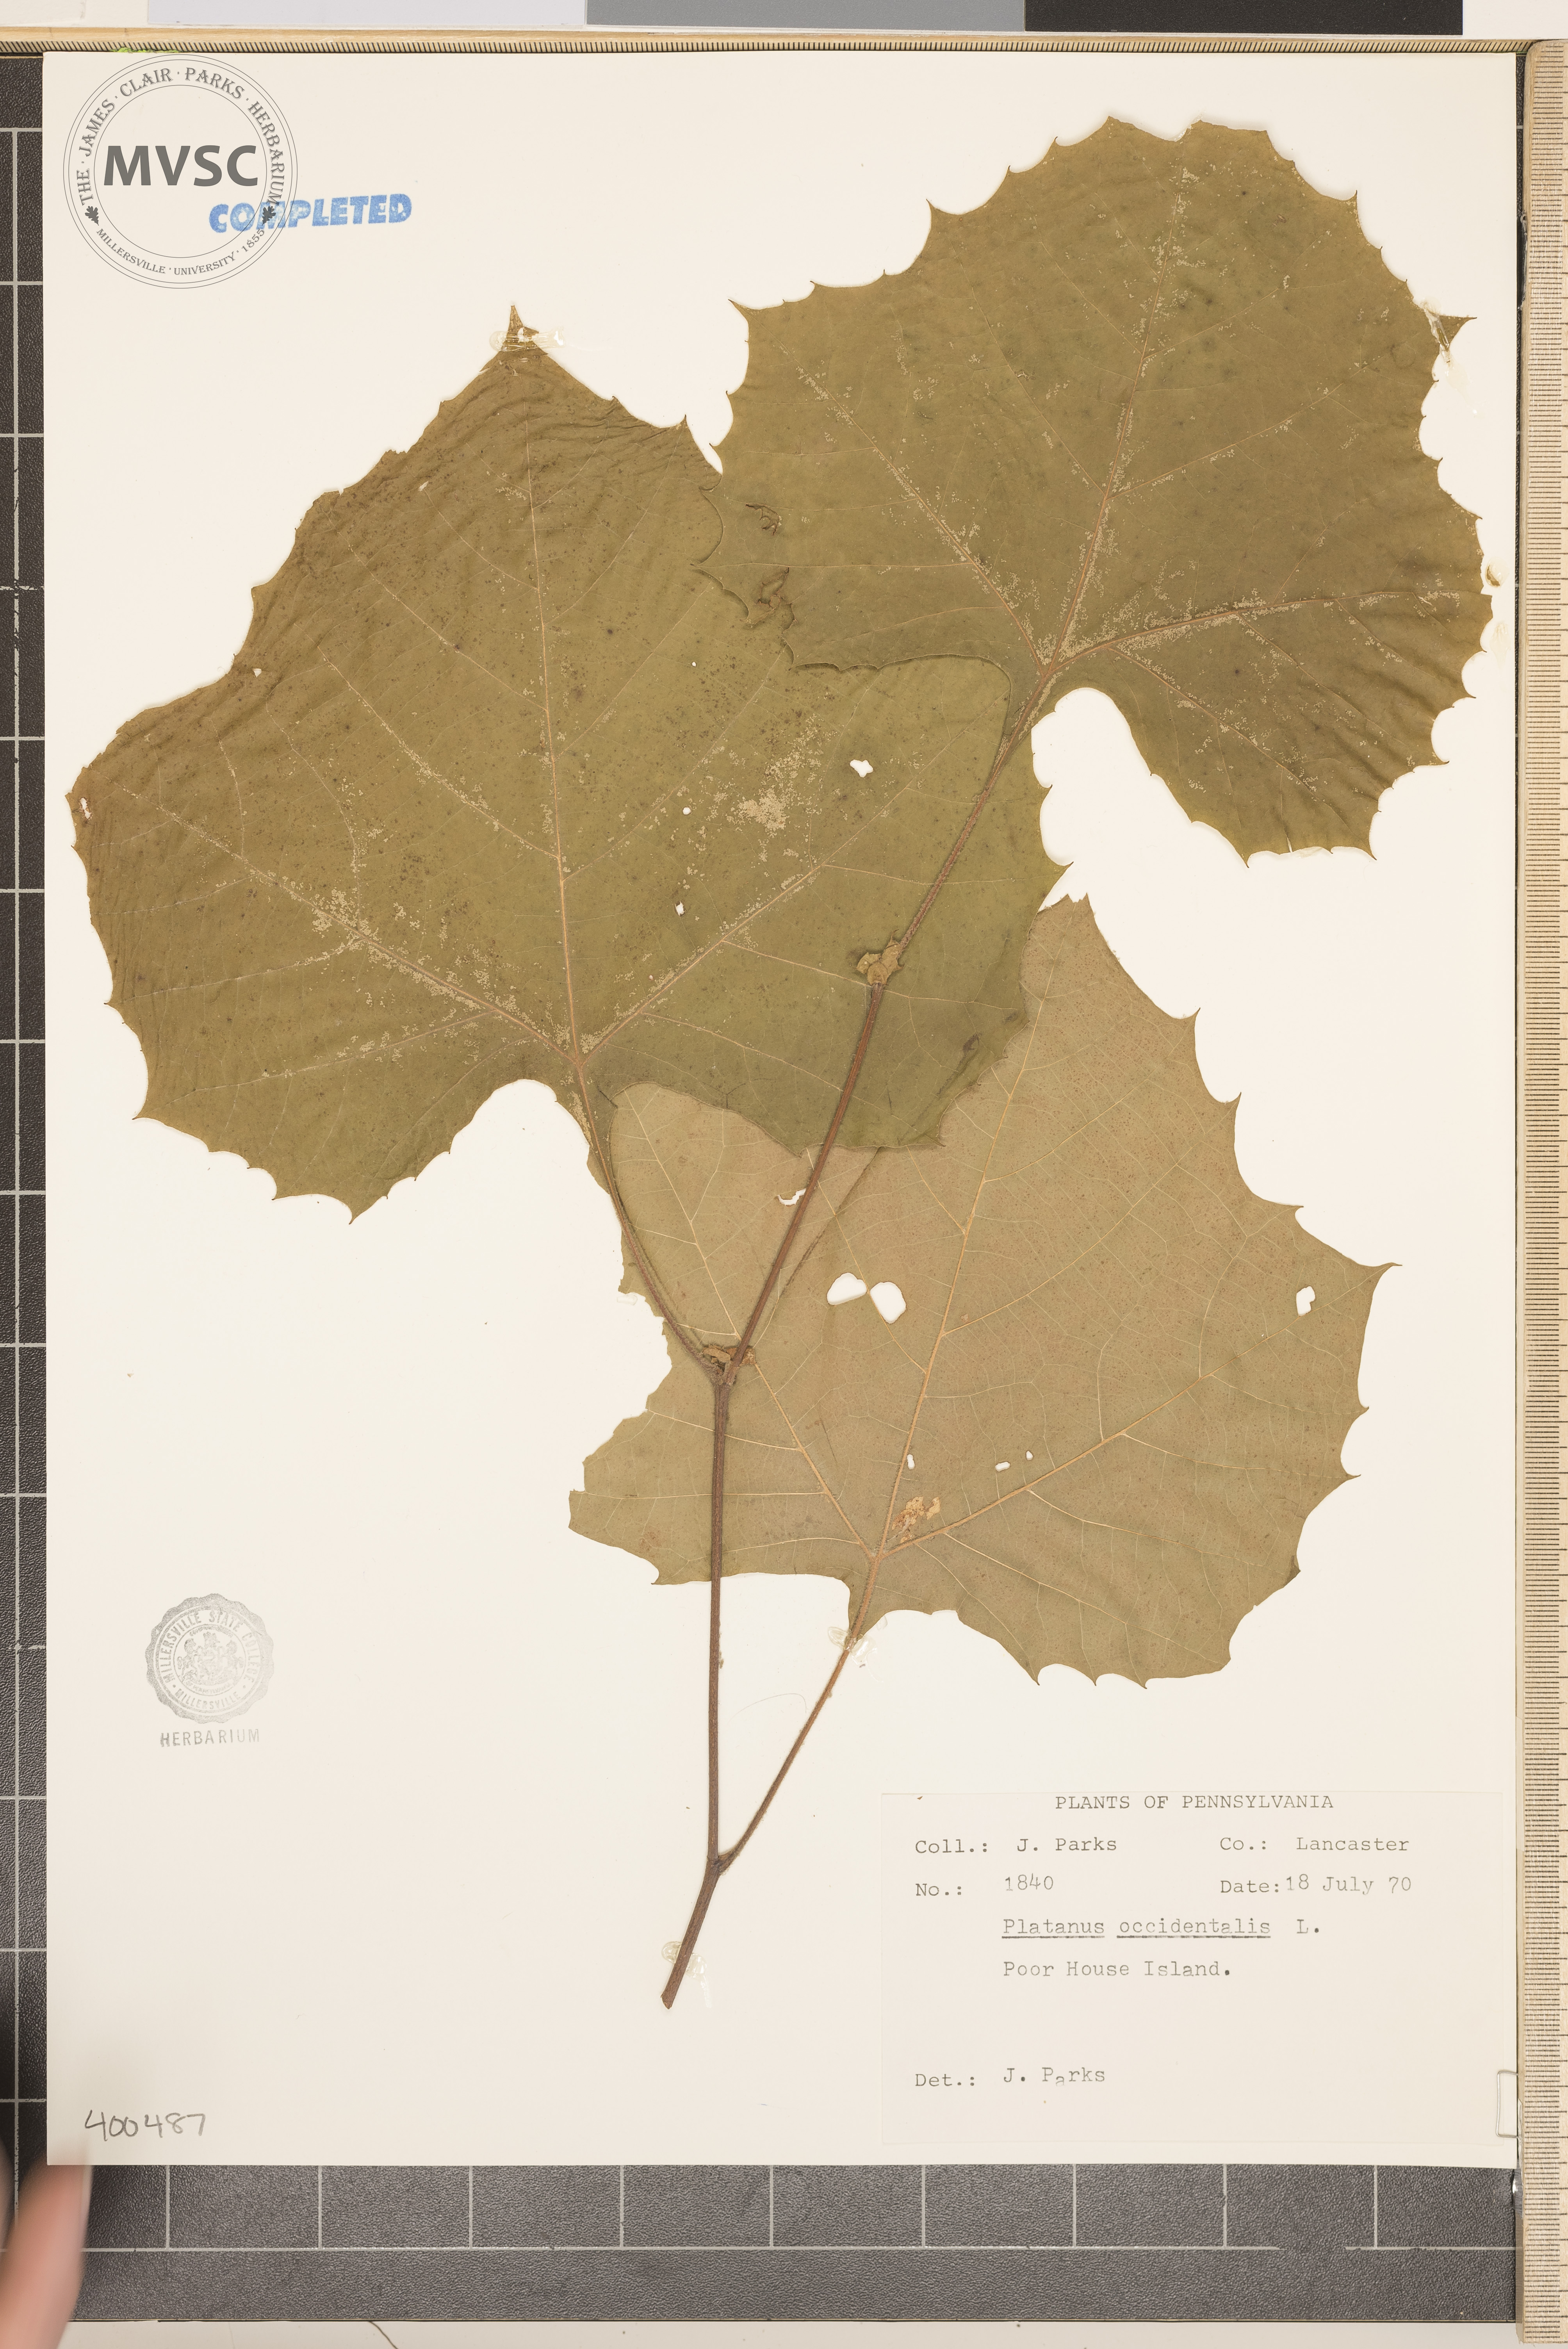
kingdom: Plantae
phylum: Tracheophyta
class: Magnoliopsida
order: Proteales
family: Platanaceae
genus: Platanus
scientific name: Platanus occidentalis
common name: sycamore
